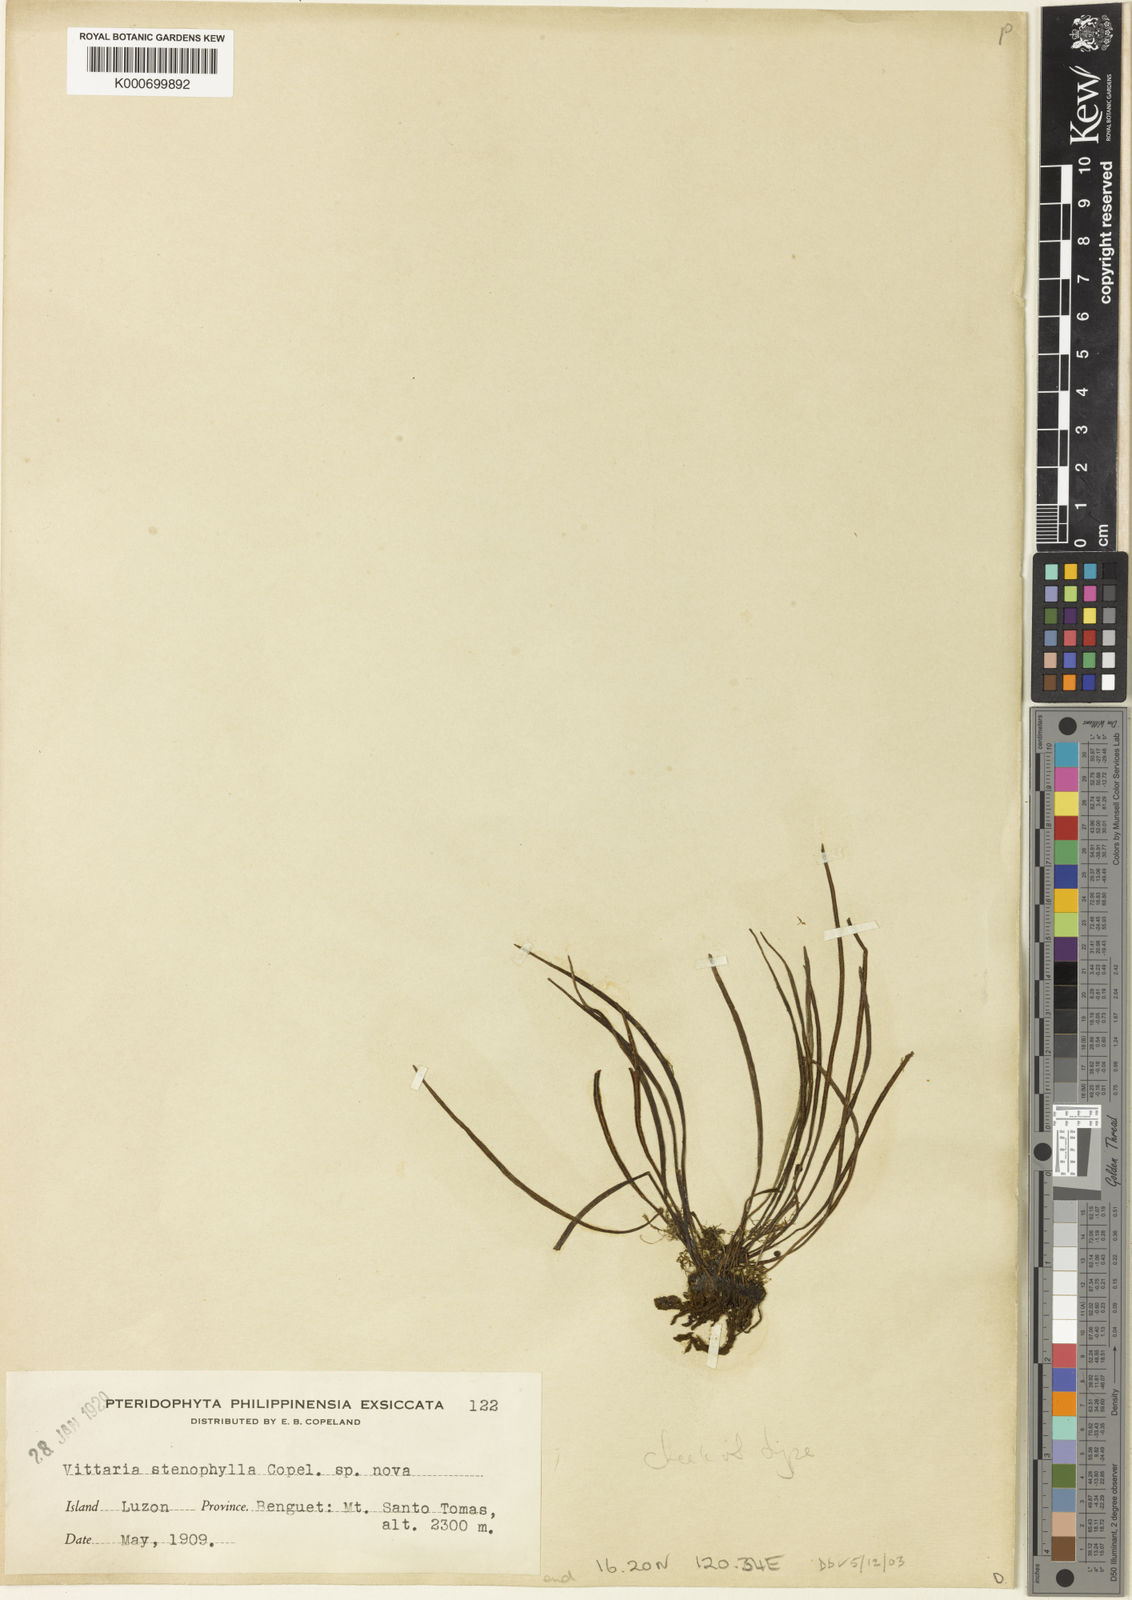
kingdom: Plantae
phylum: Tracheophyta
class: Polypodiopsida
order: Polypodiales
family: Pteridaceae
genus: Haplopteris
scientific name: Haplopteris stenophylla
